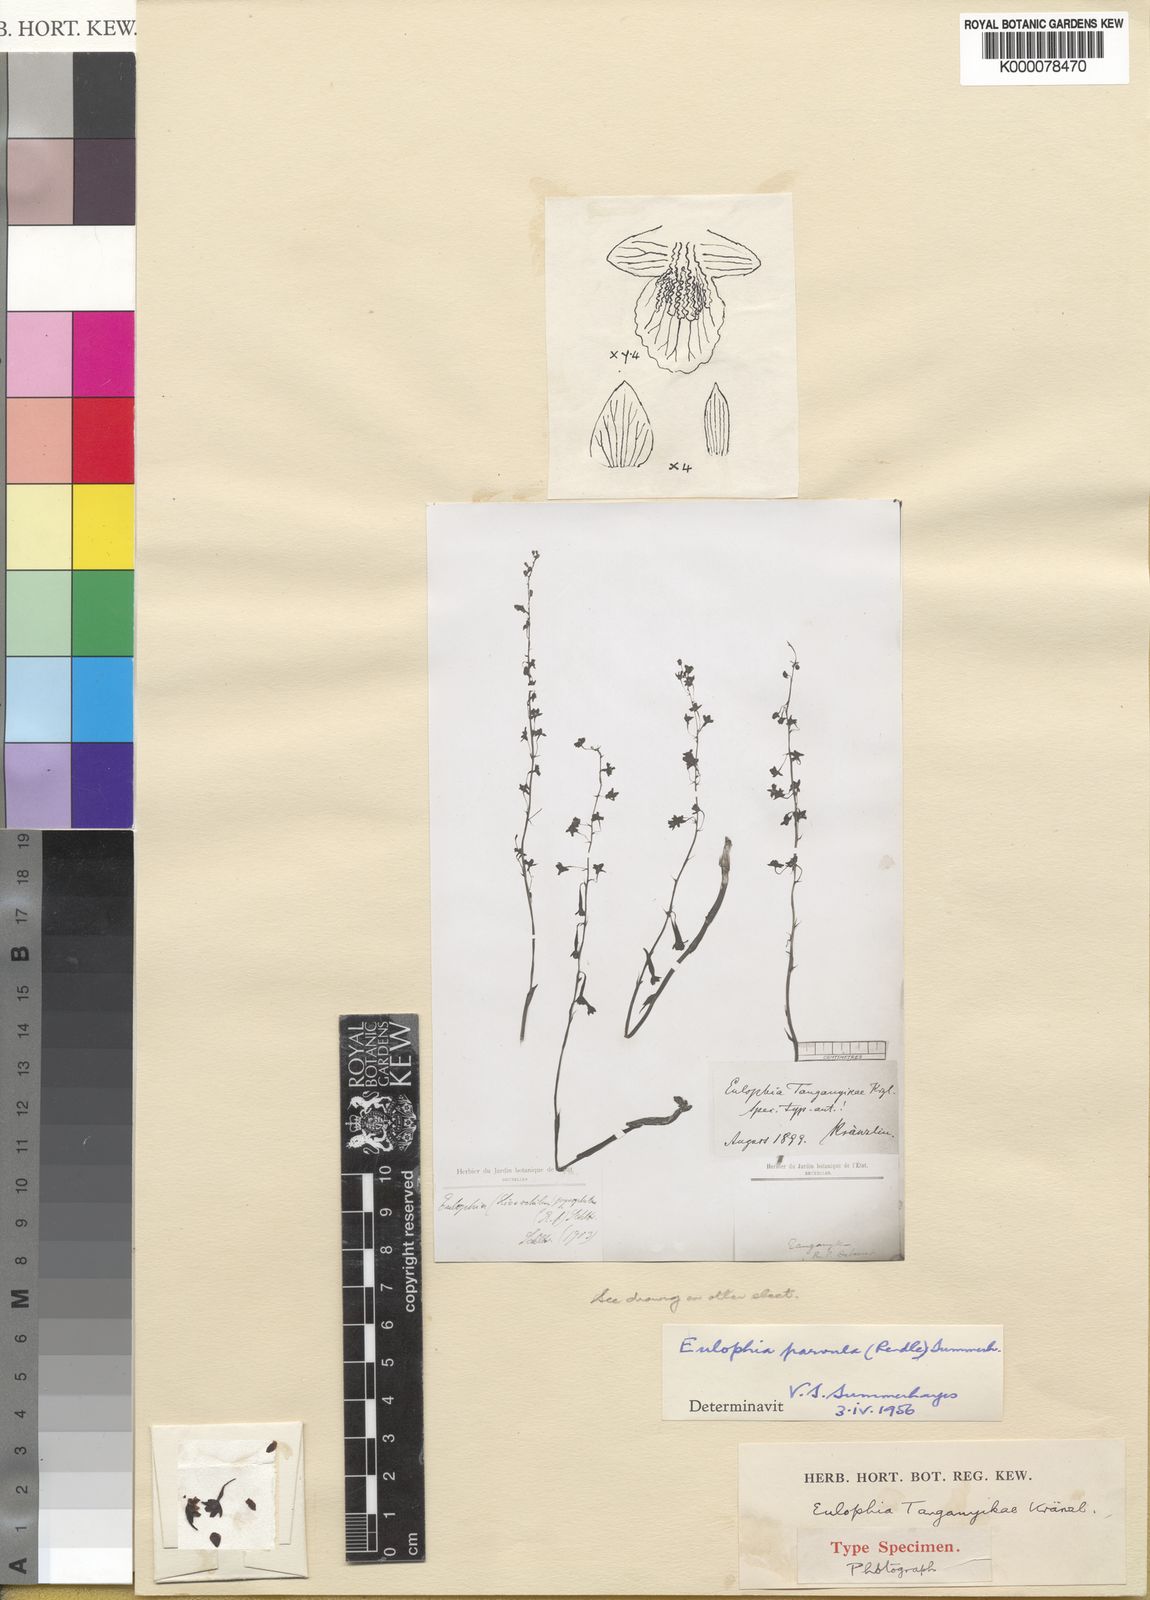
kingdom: Plantae
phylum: Tracheophyta
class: Liliopsida
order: Asparagales
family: Orchidaceae
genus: Eulophia
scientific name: Eulophia parvula
